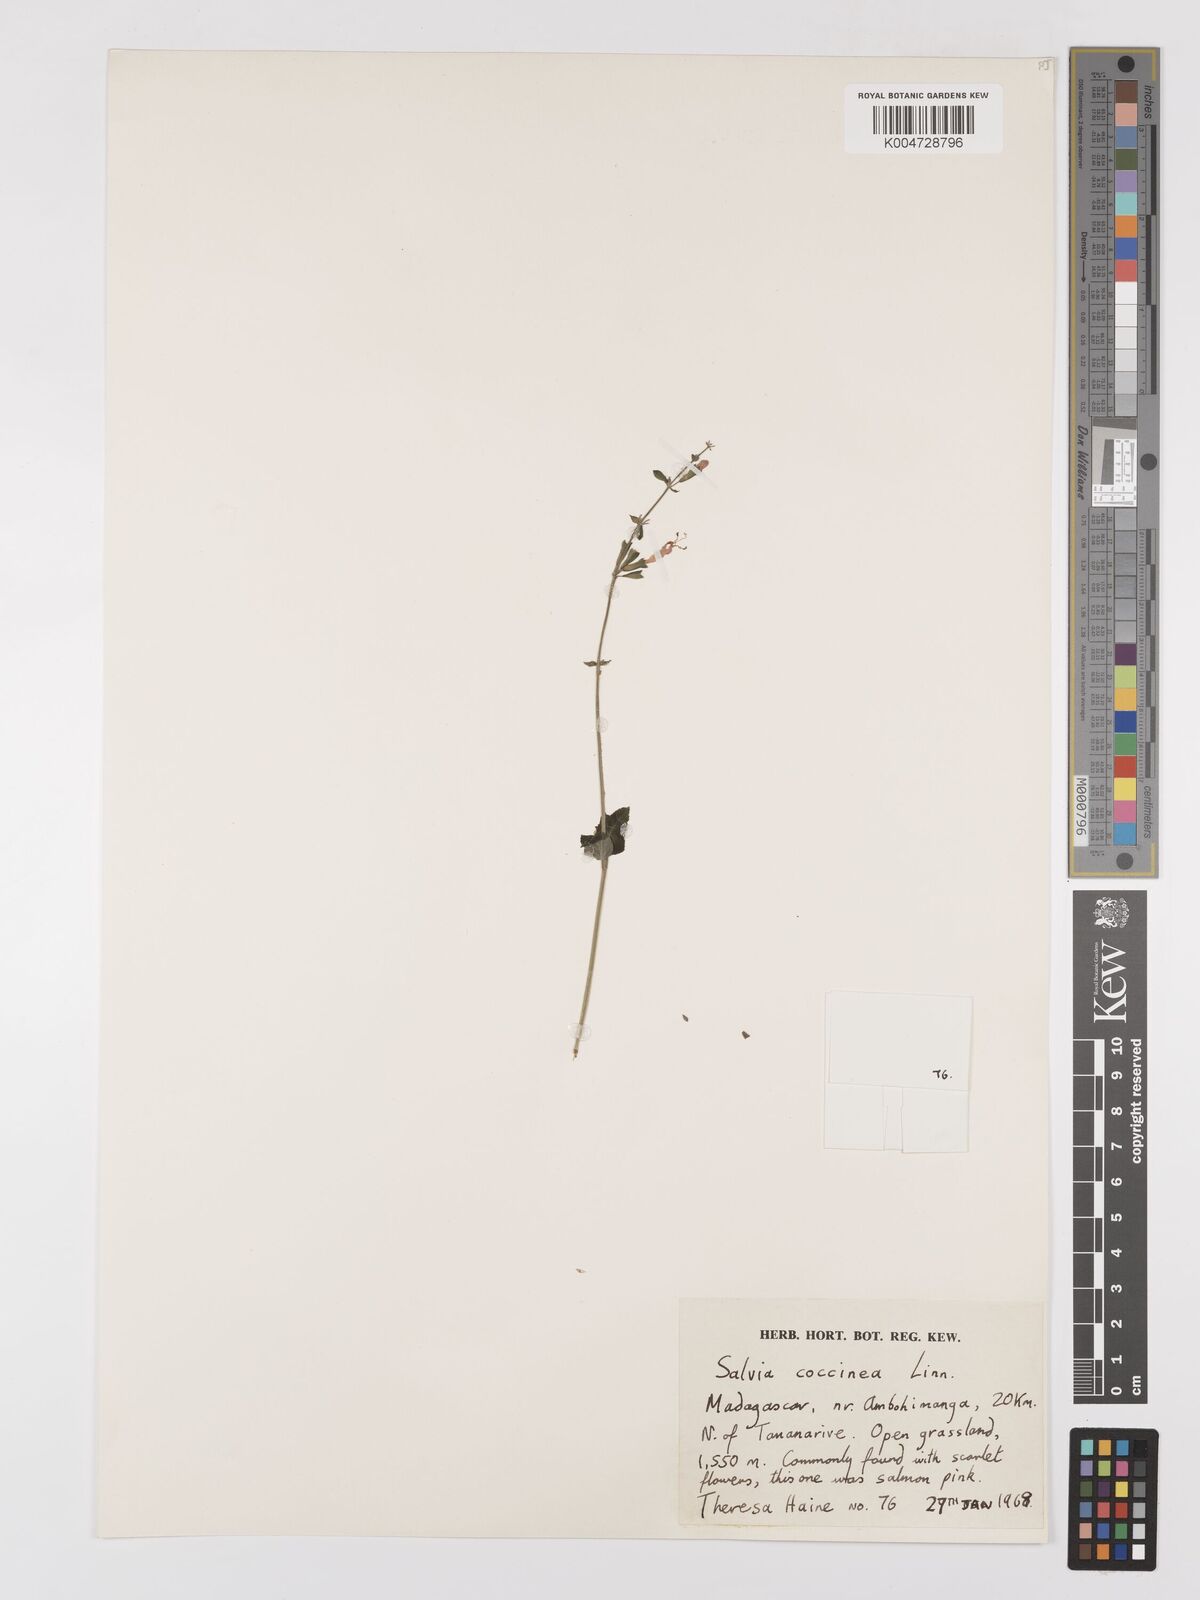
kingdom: Plantae
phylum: Tracheophyta
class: Magnoliopsida
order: Lamiales
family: Lamiaceae
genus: Salvia
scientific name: Salvia
